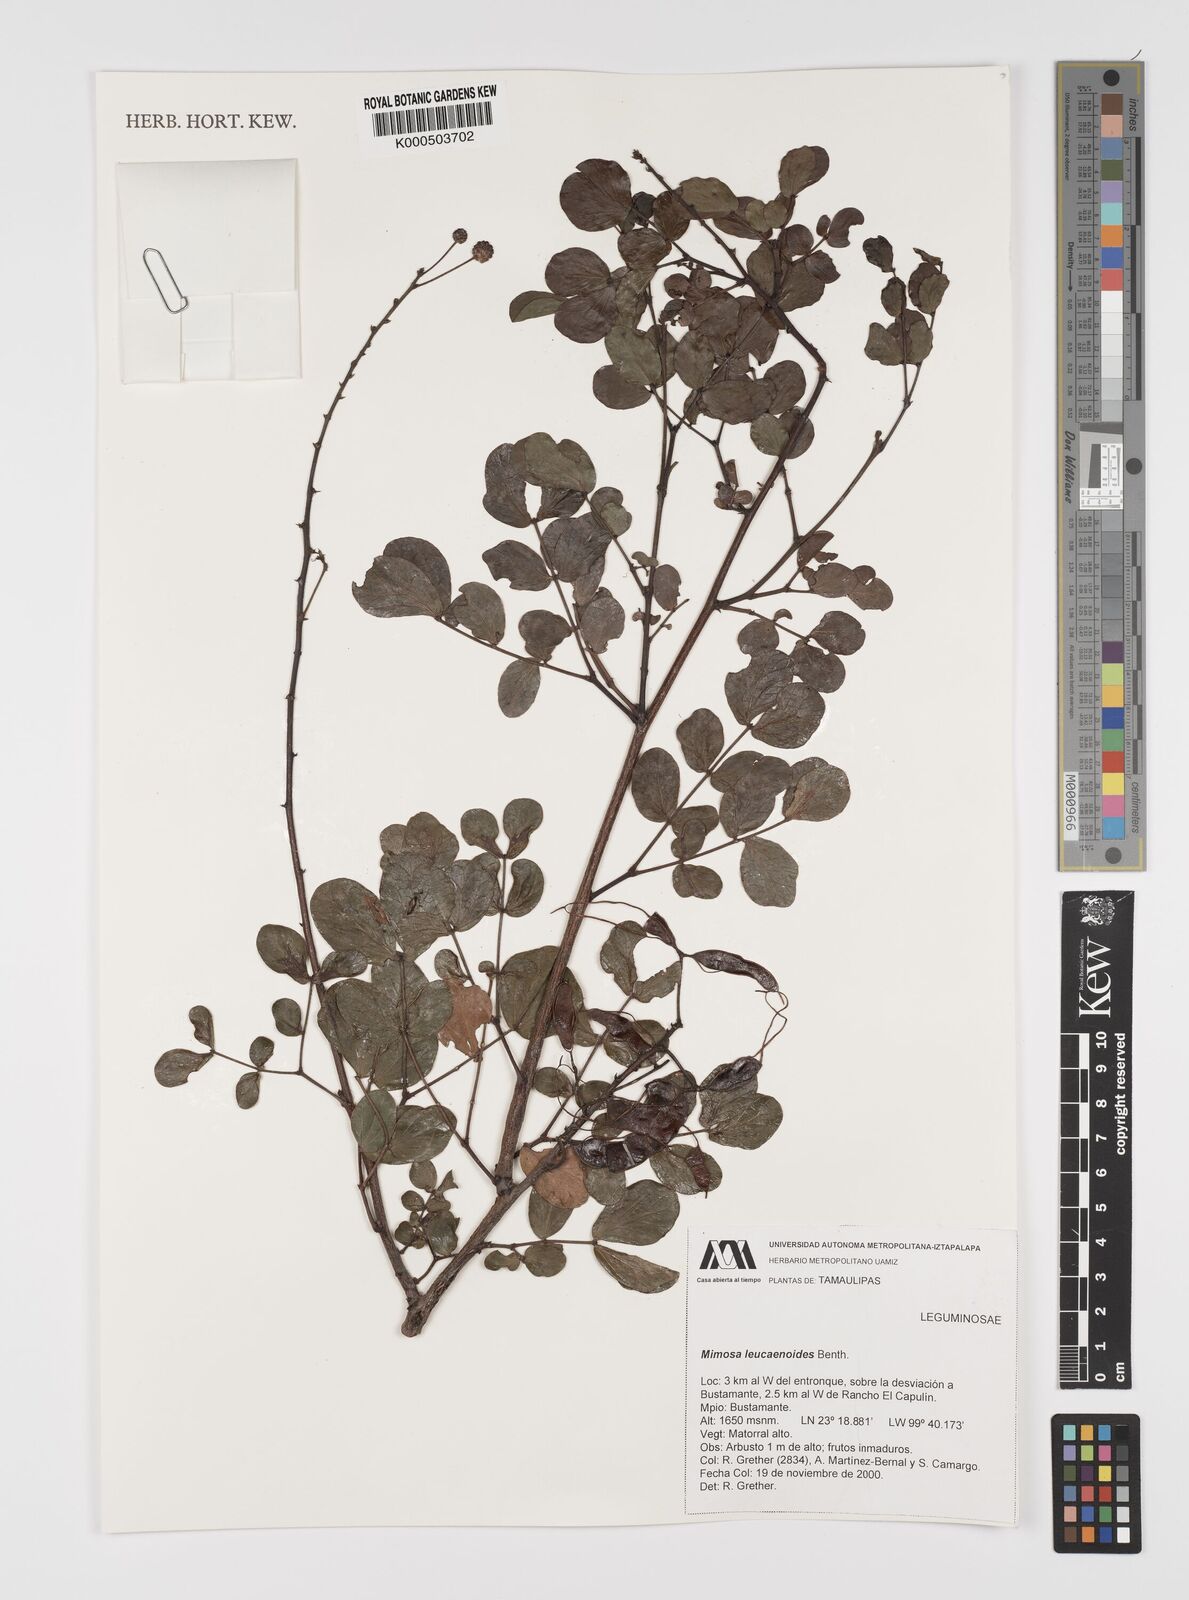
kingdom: Plantae
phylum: Tracheophyta
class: Magnoliopsida
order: Fabales
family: Fabaceae
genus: Mimosa
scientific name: Mimosa leucaenoides
